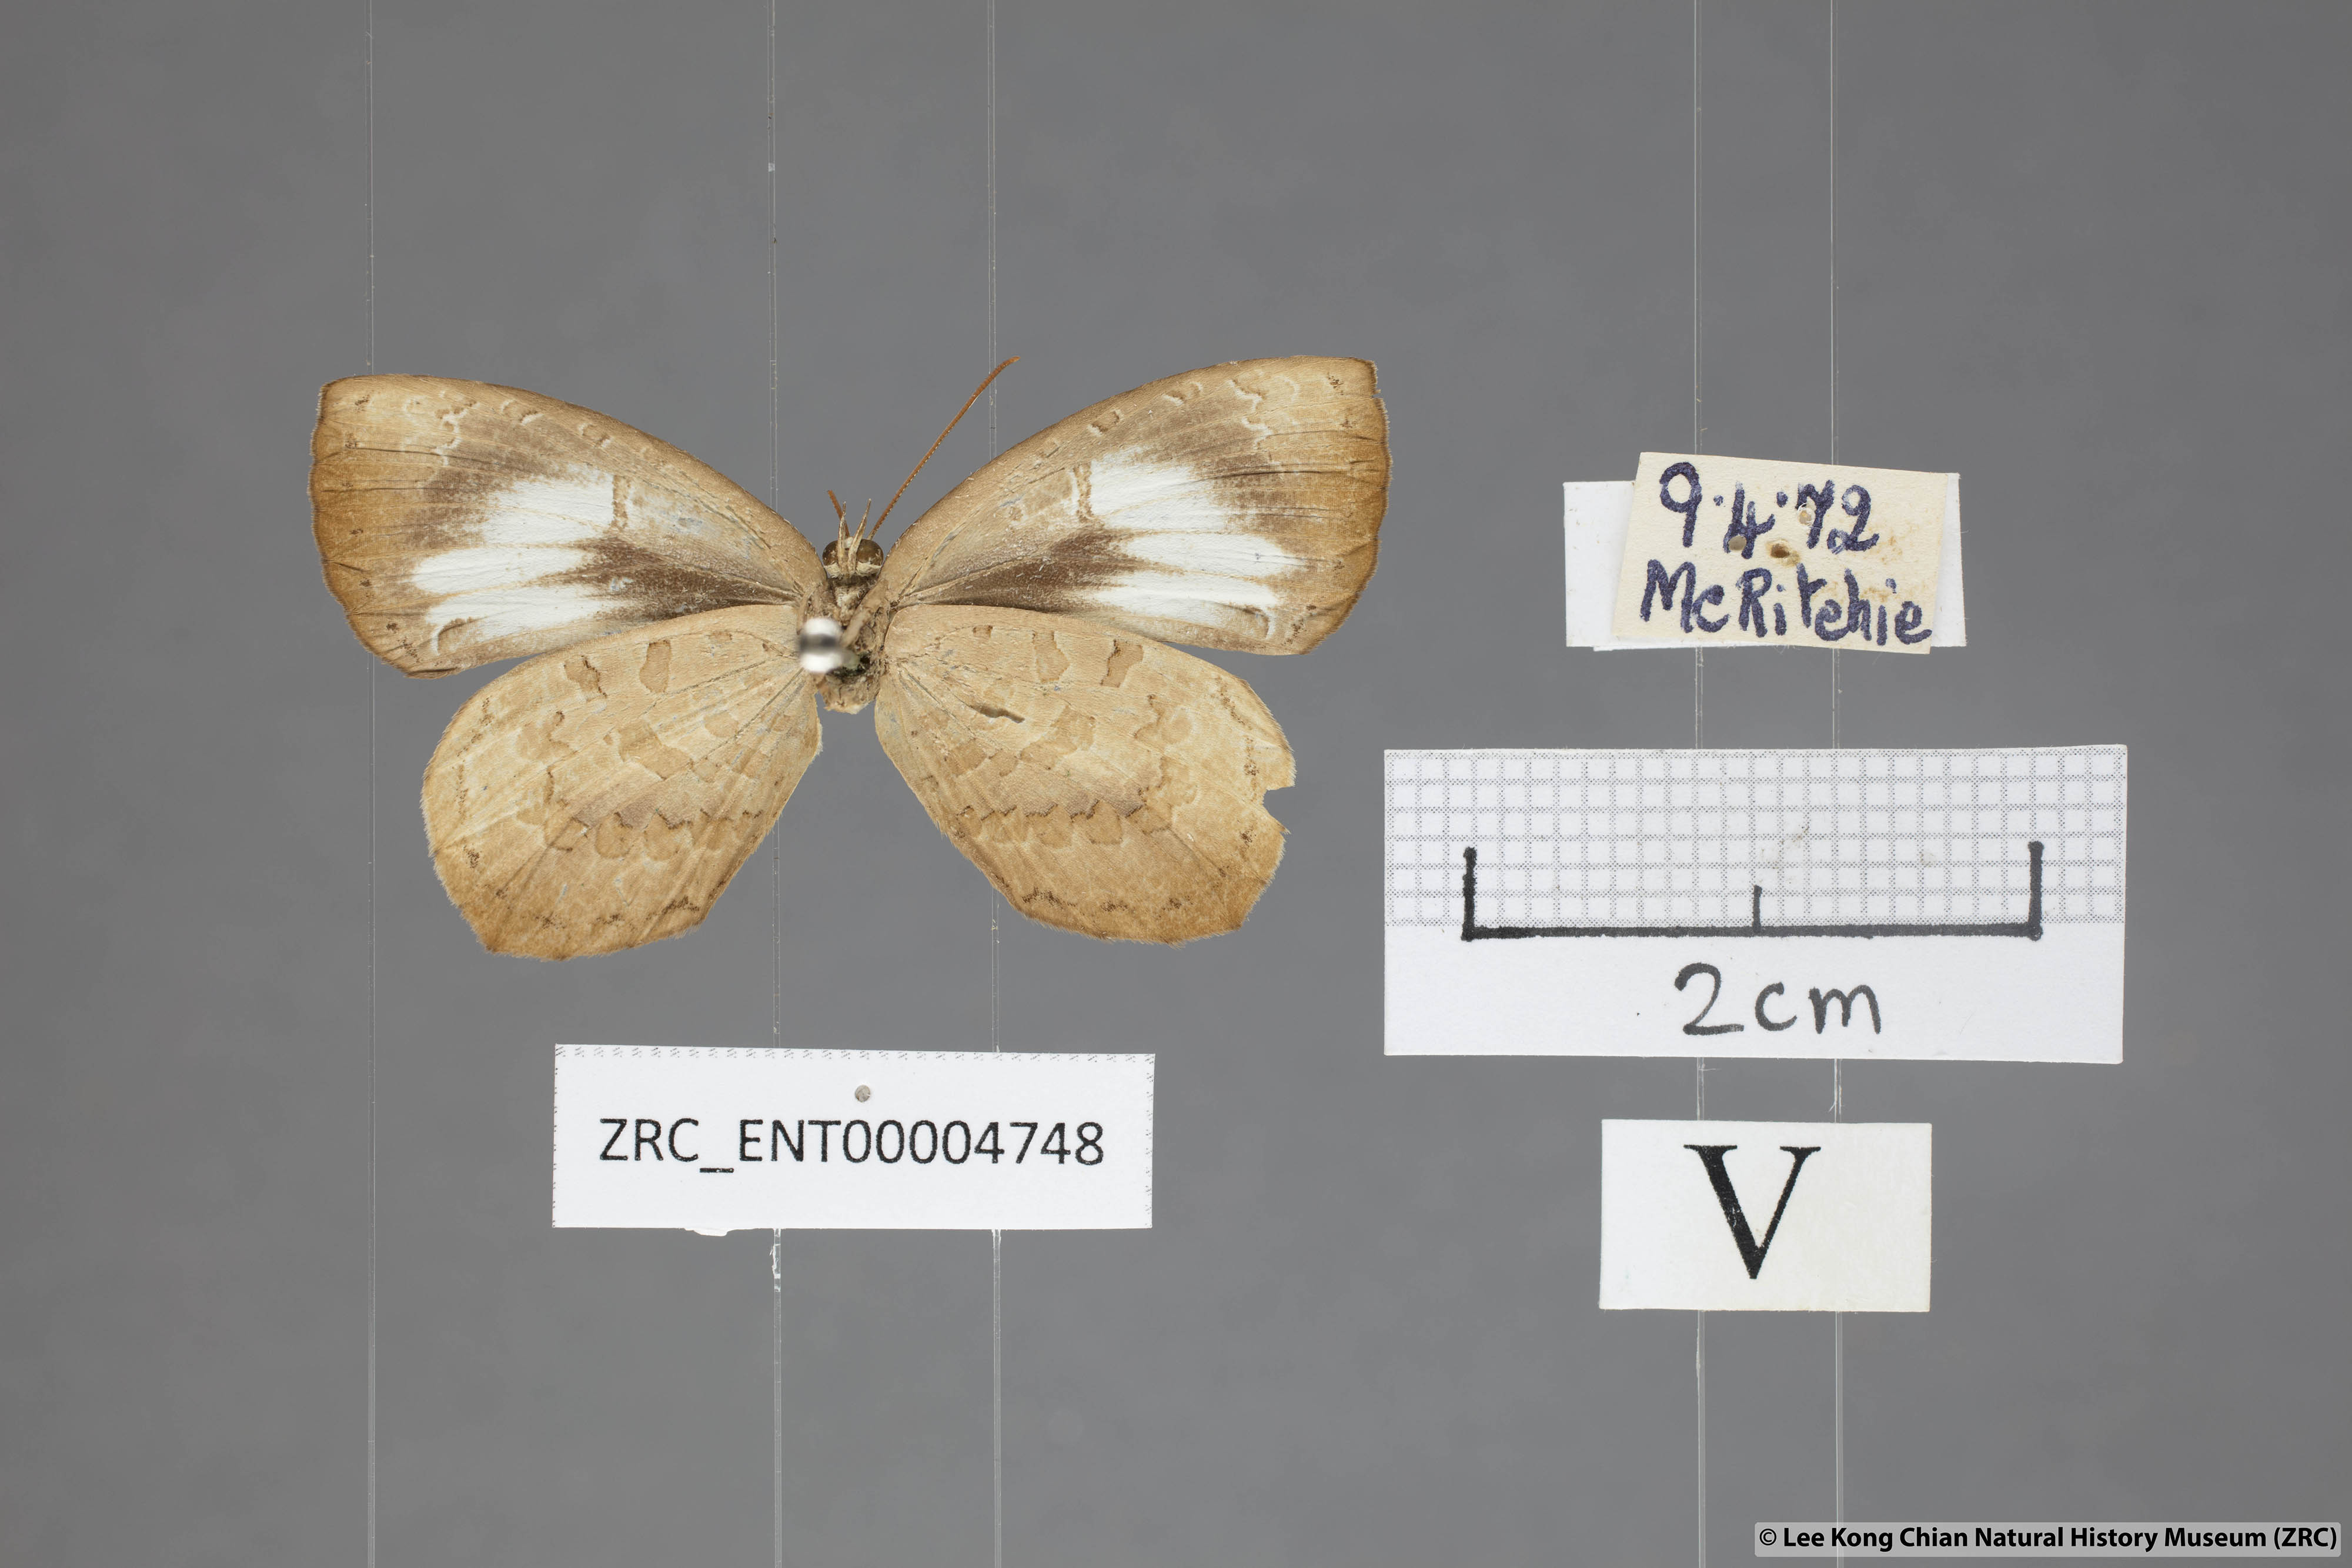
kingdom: Animalia
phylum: Arthropoda
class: Insecta
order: Lepidoptera
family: Lycaenidae
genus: Miletus
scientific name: Miletus symethus
